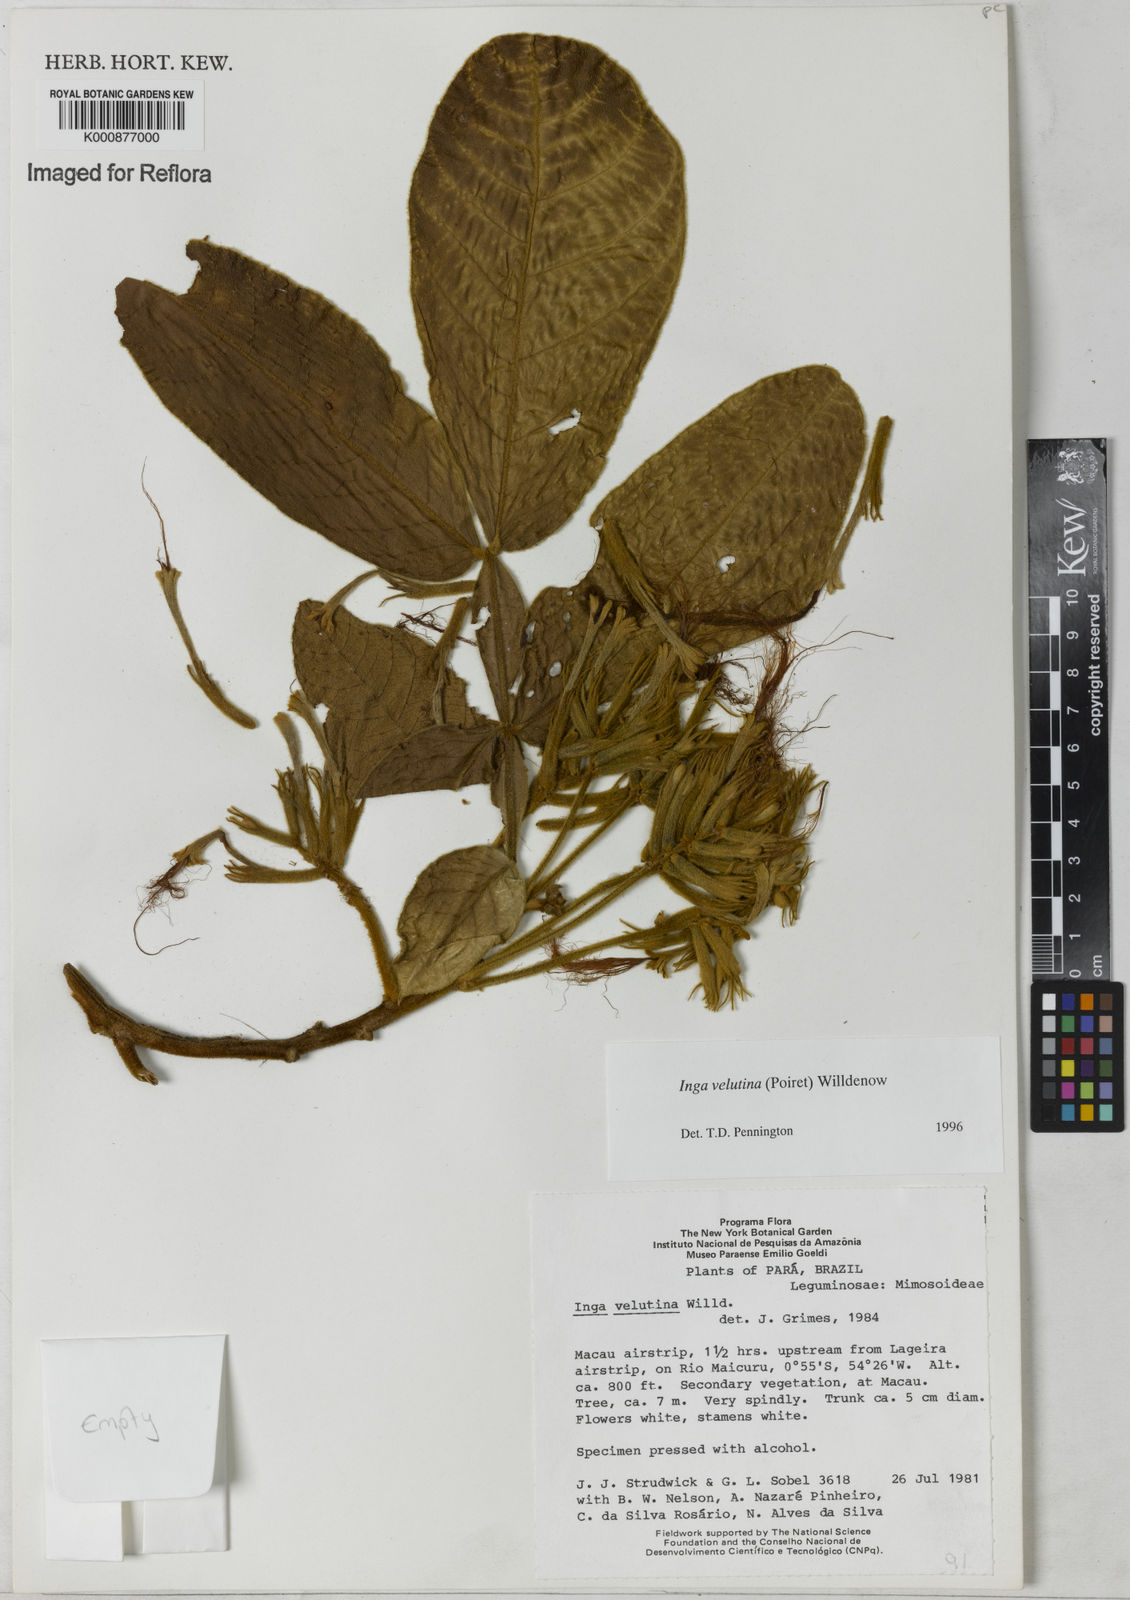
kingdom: Plantae
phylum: Tracheophyta
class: Magnoliopsida
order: Fabales
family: Fabaceae
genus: Inga
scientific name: Inga velutina
